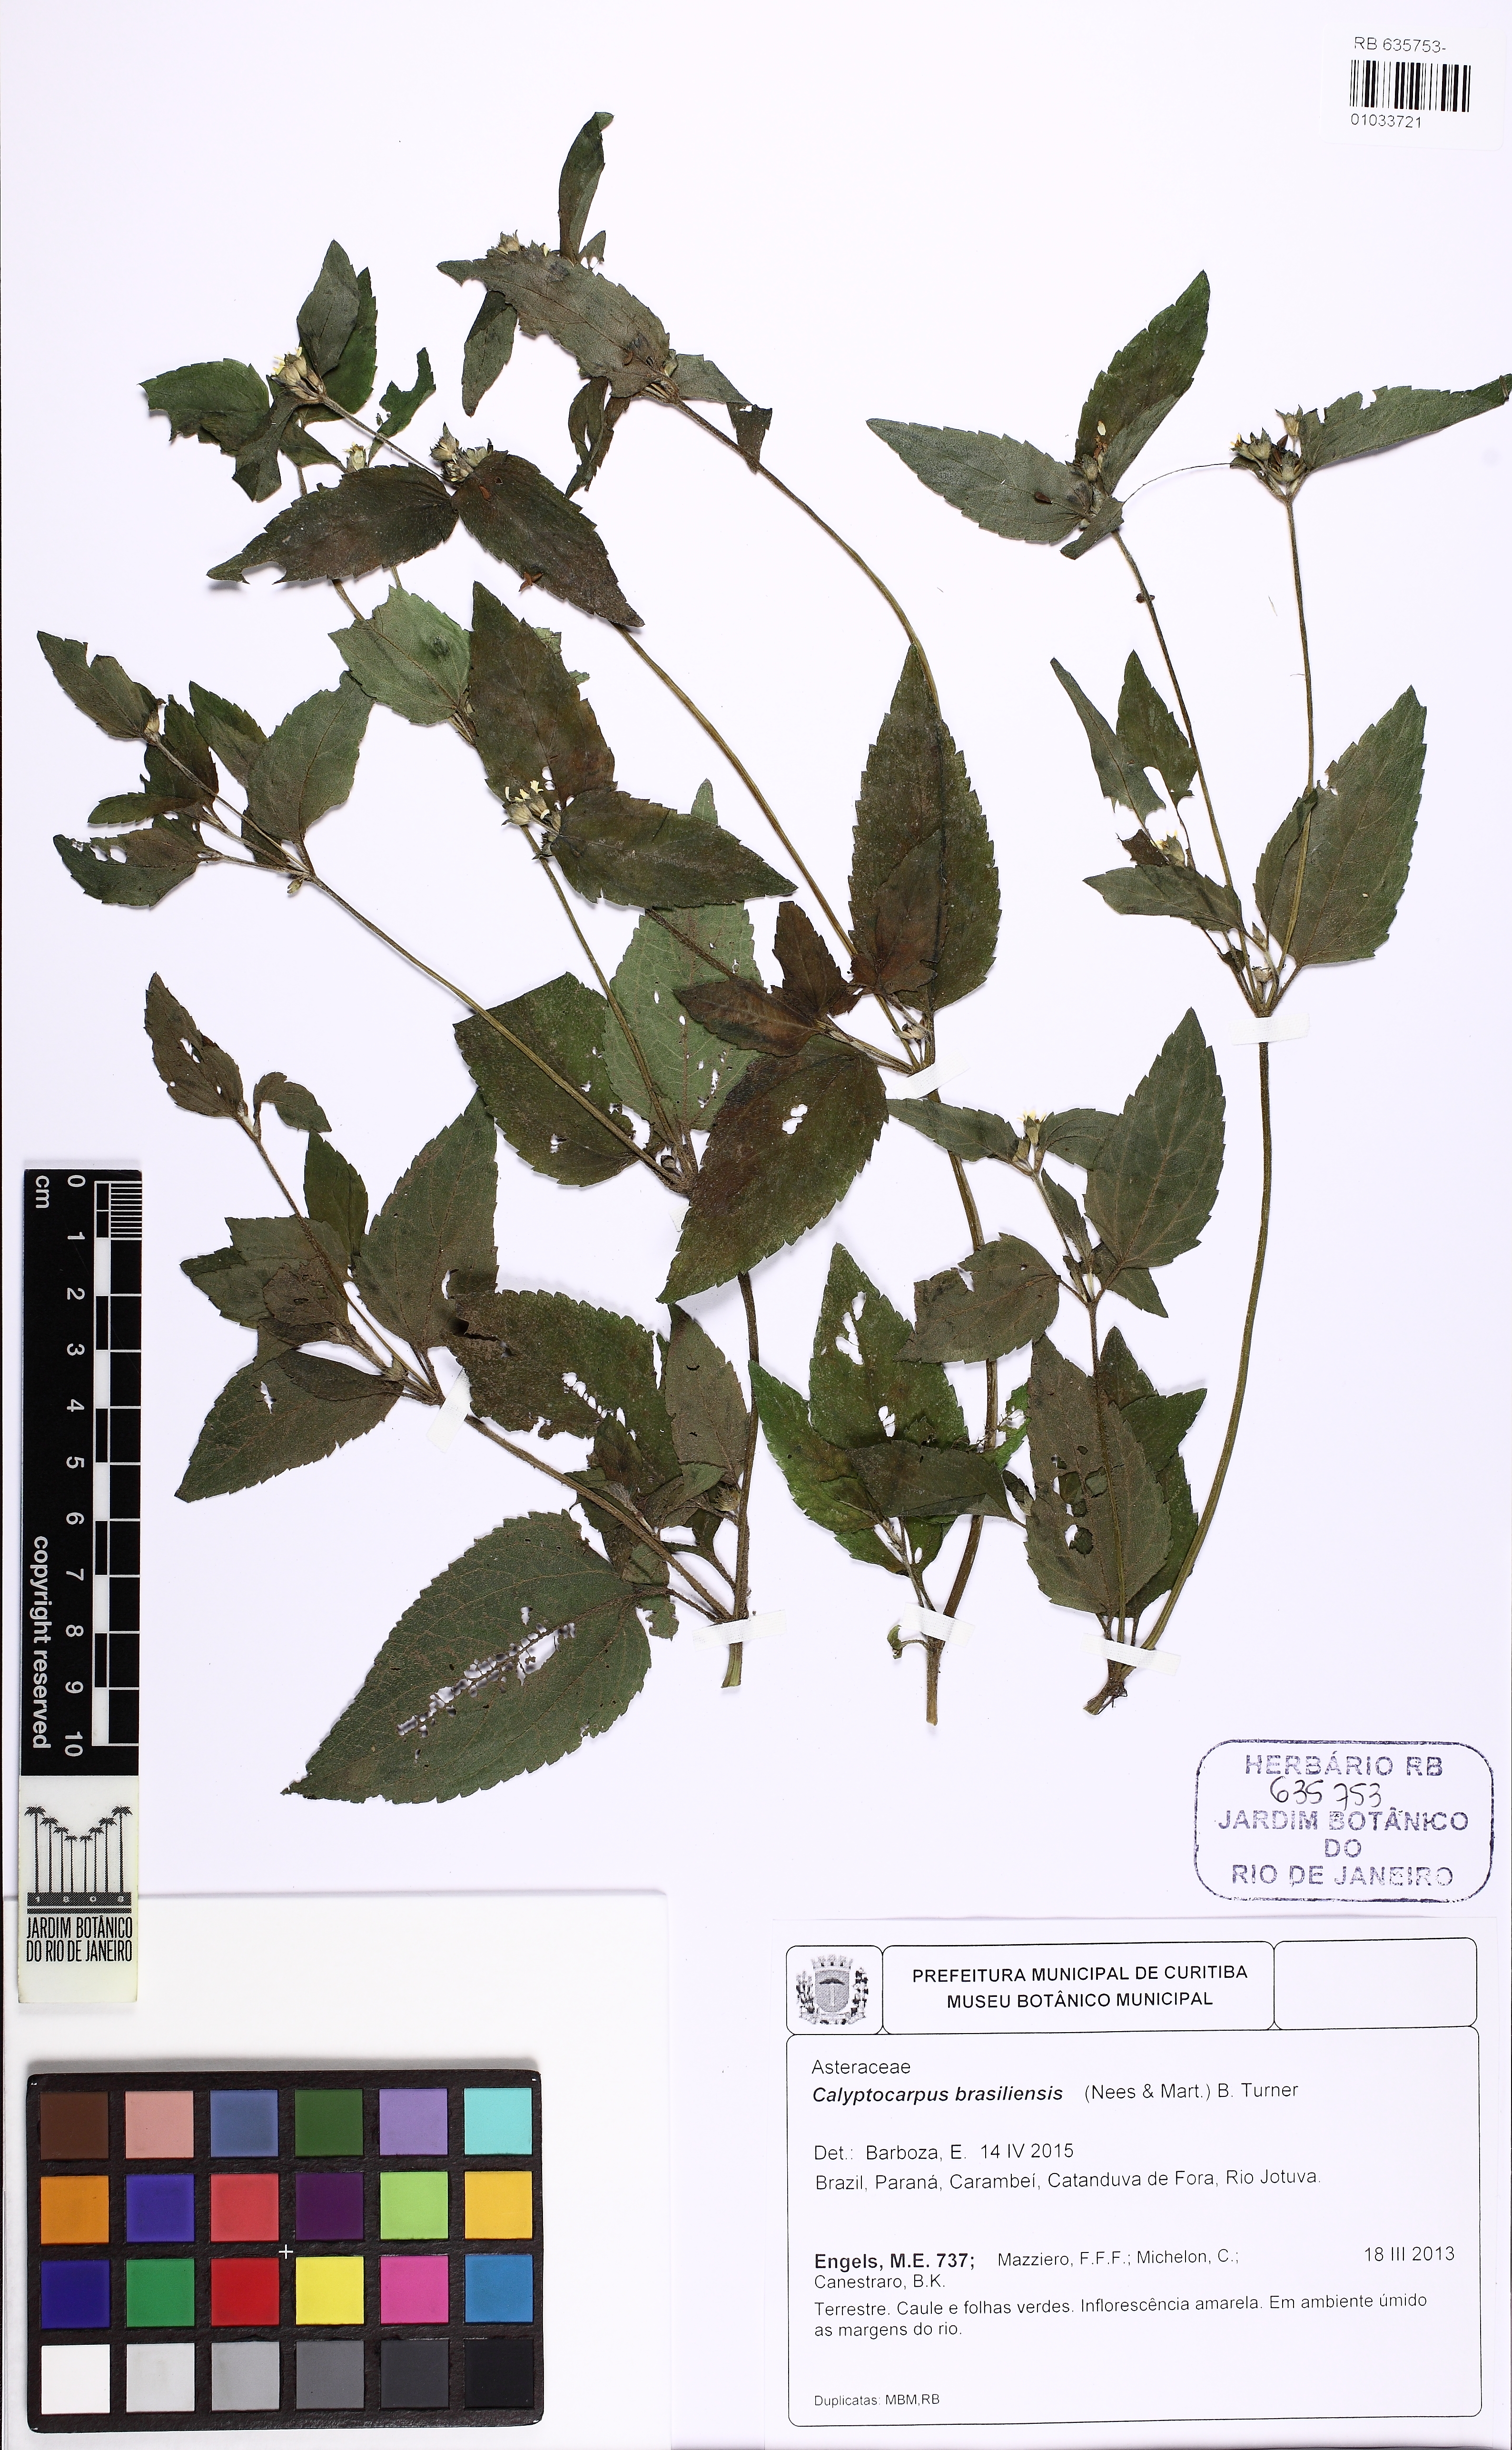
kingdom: Plantae
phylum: Tracheophyta
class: Magnoliopsida
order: Asterales
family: Asteraceae
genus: Calyptocarpus
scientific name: Calyptocarpus brasiliensis
